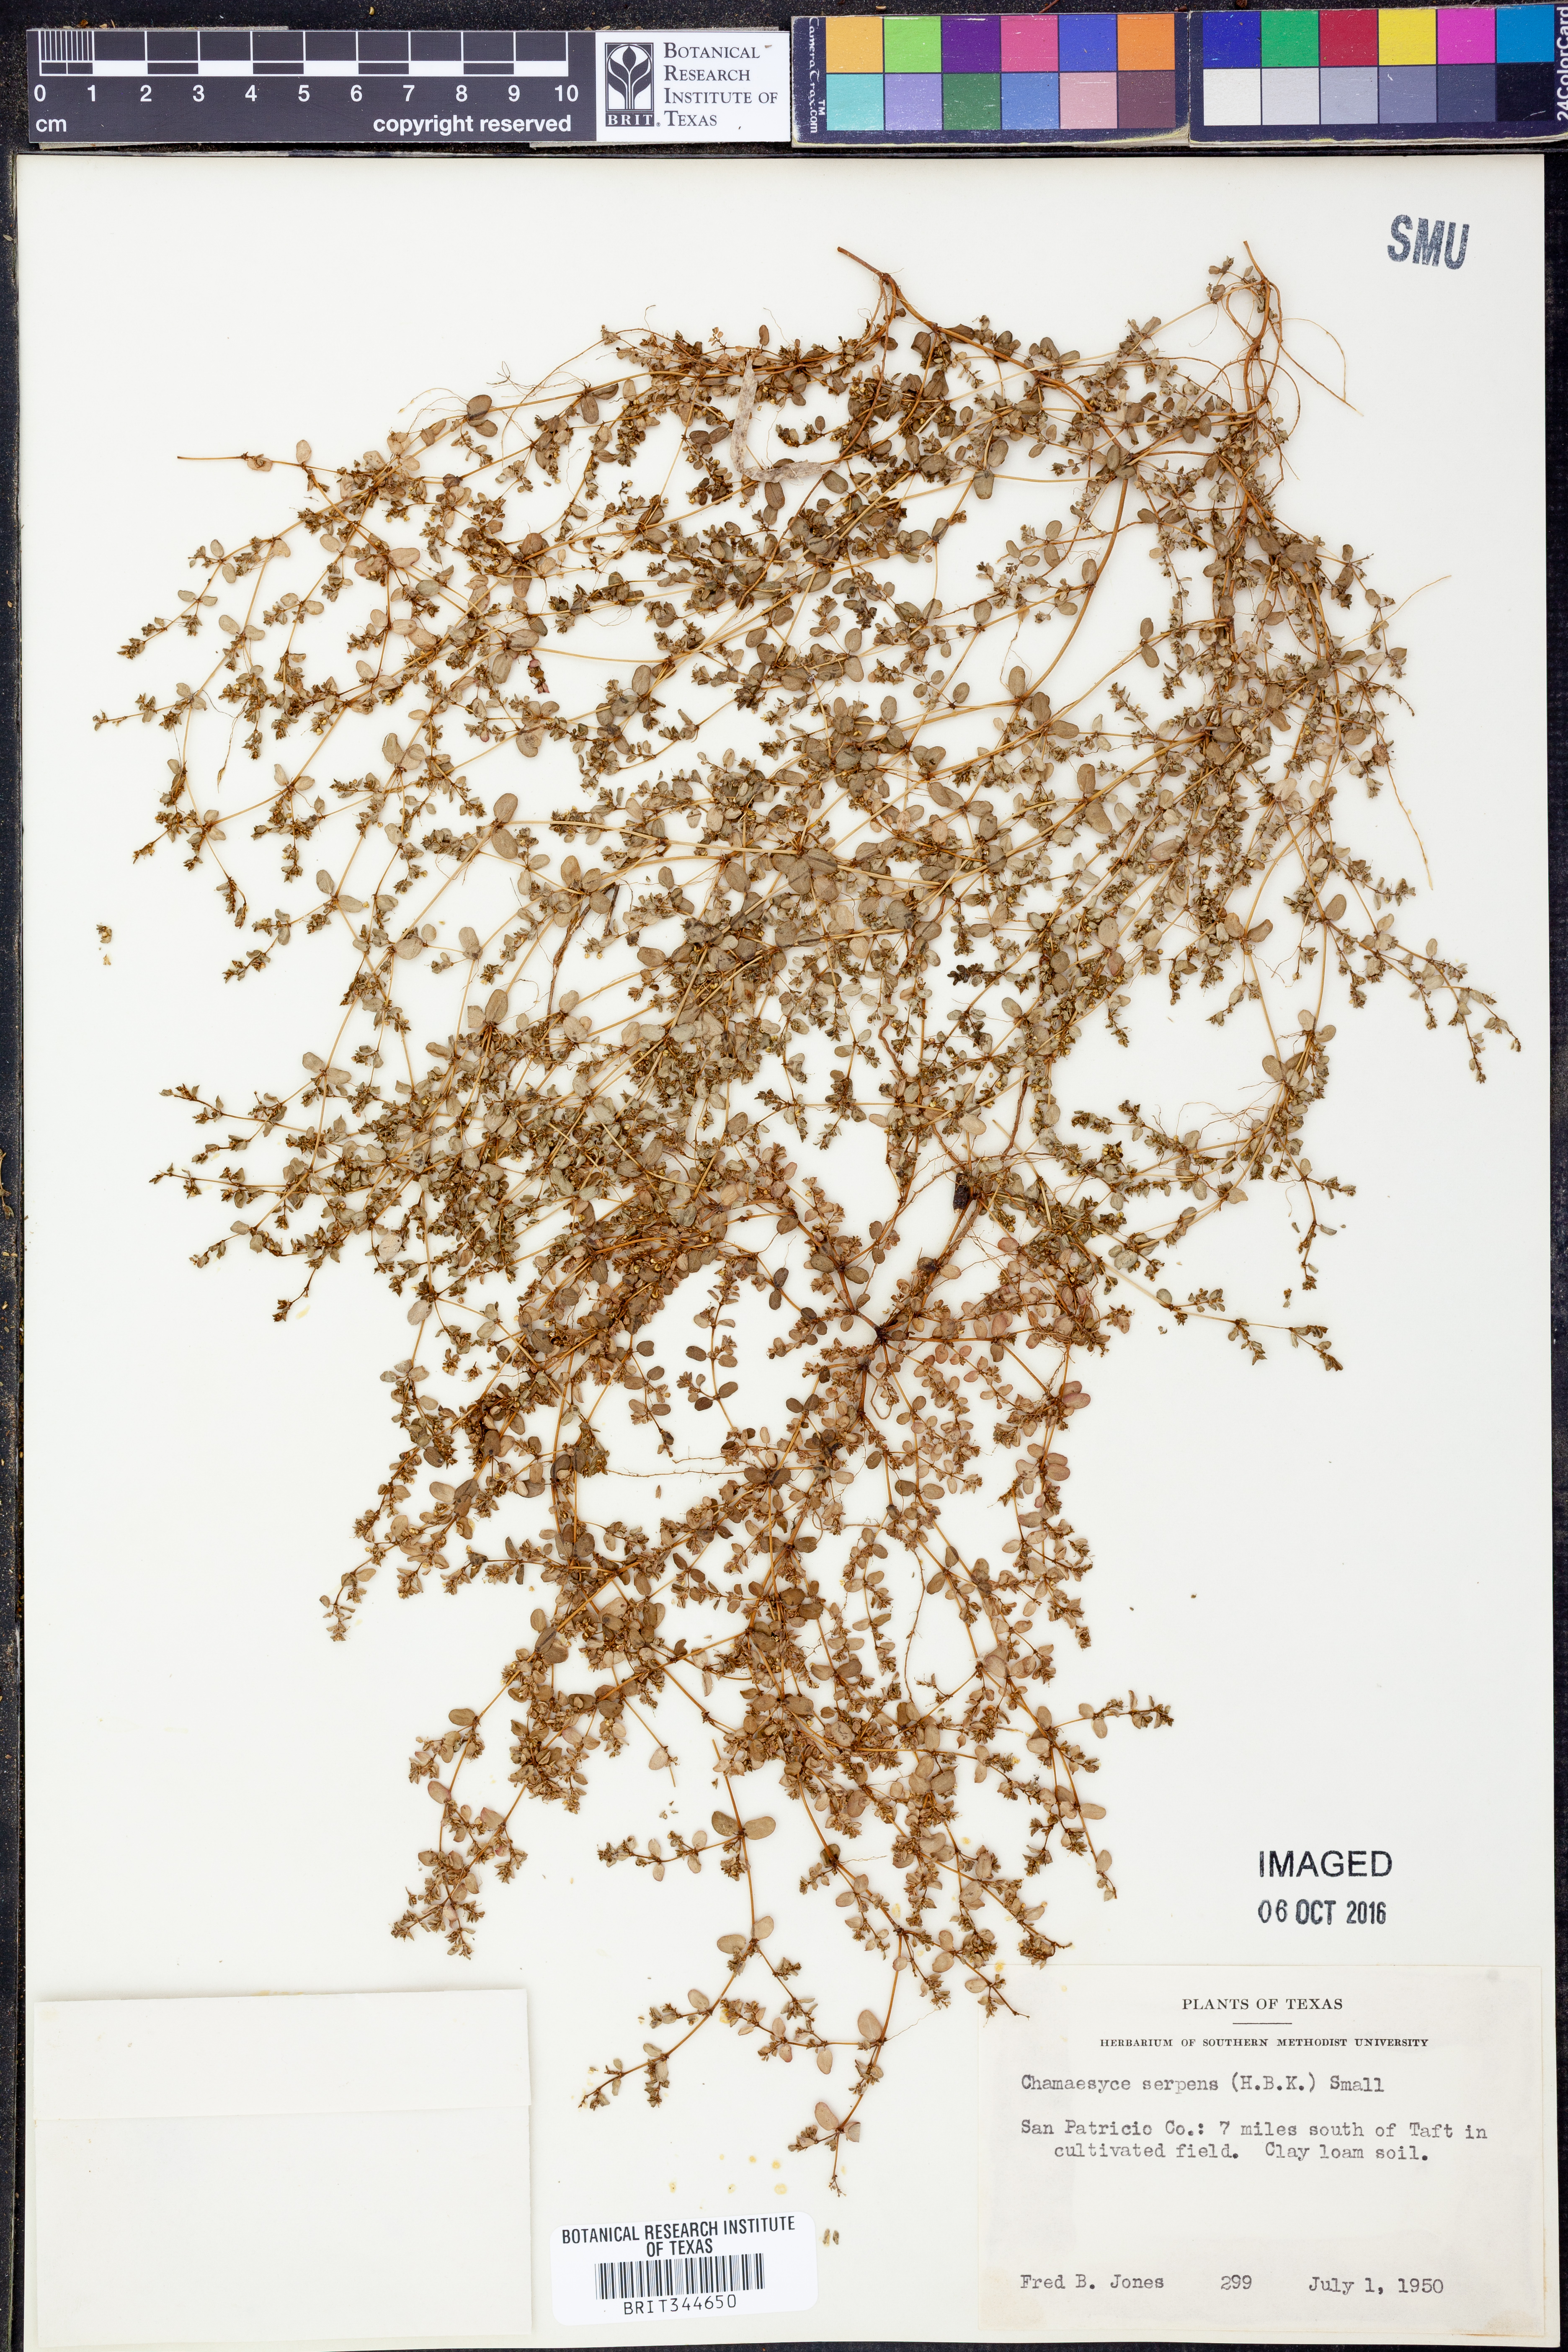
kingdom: Plantae
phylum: Tracheophyta
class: Magnoliopsida
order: Malpighiales
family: Euphorbiaceae
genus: Euphorbia
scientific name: Euphorbia serpens
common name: Matted sandmat
